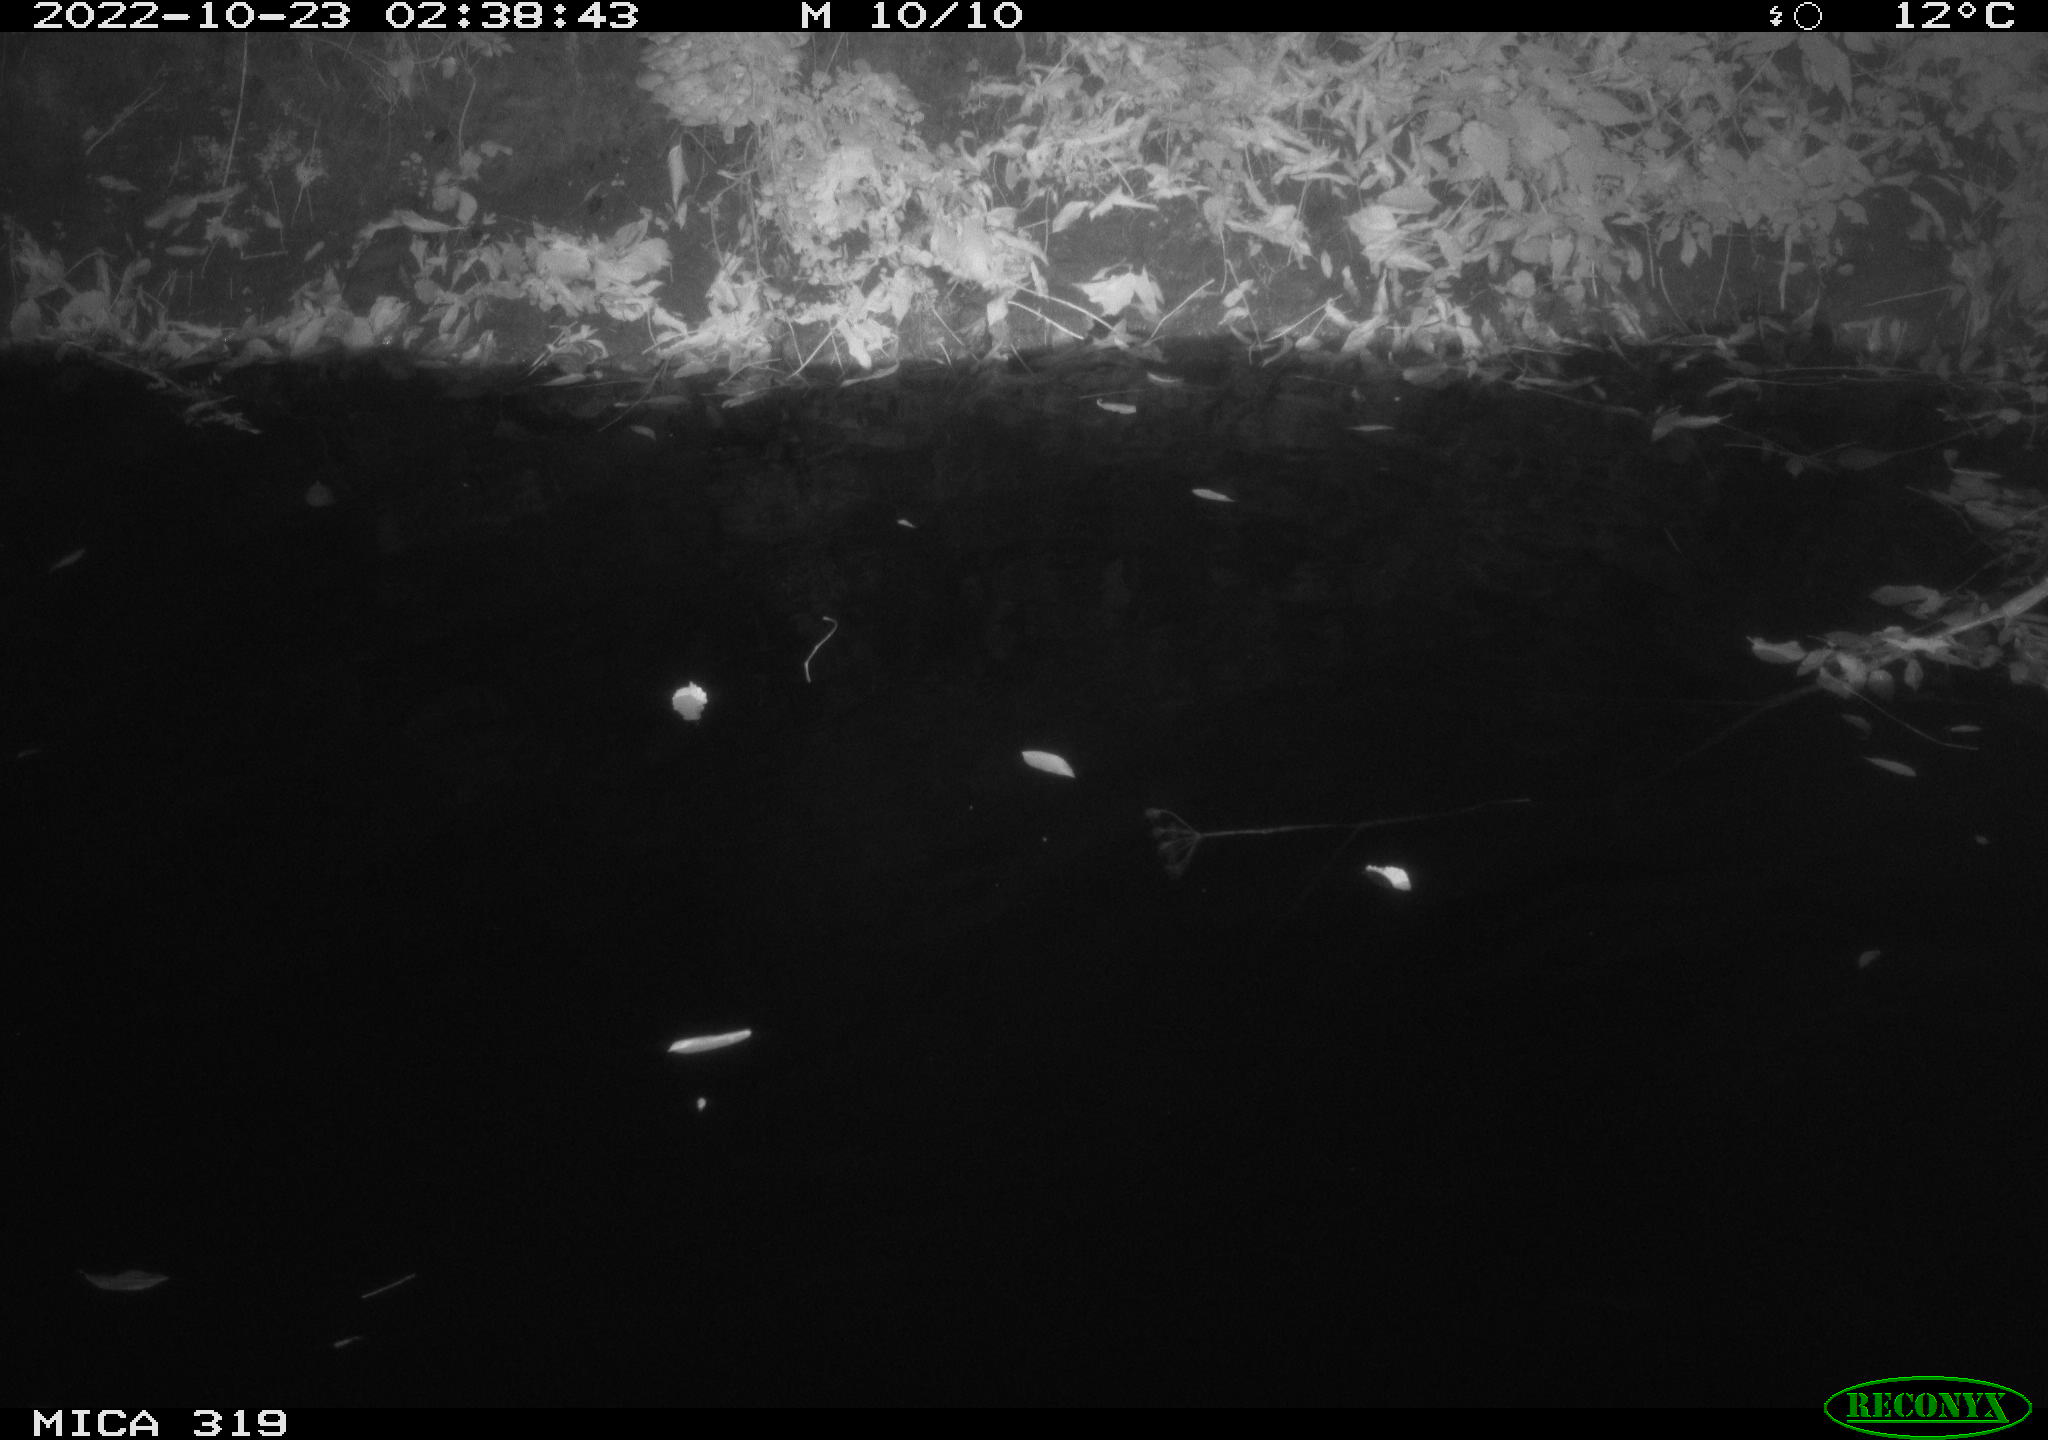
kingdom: Animalia
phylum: Chordata
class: Aves
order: Anseriformes
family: Anatidae
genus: Anas
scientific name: Anas
